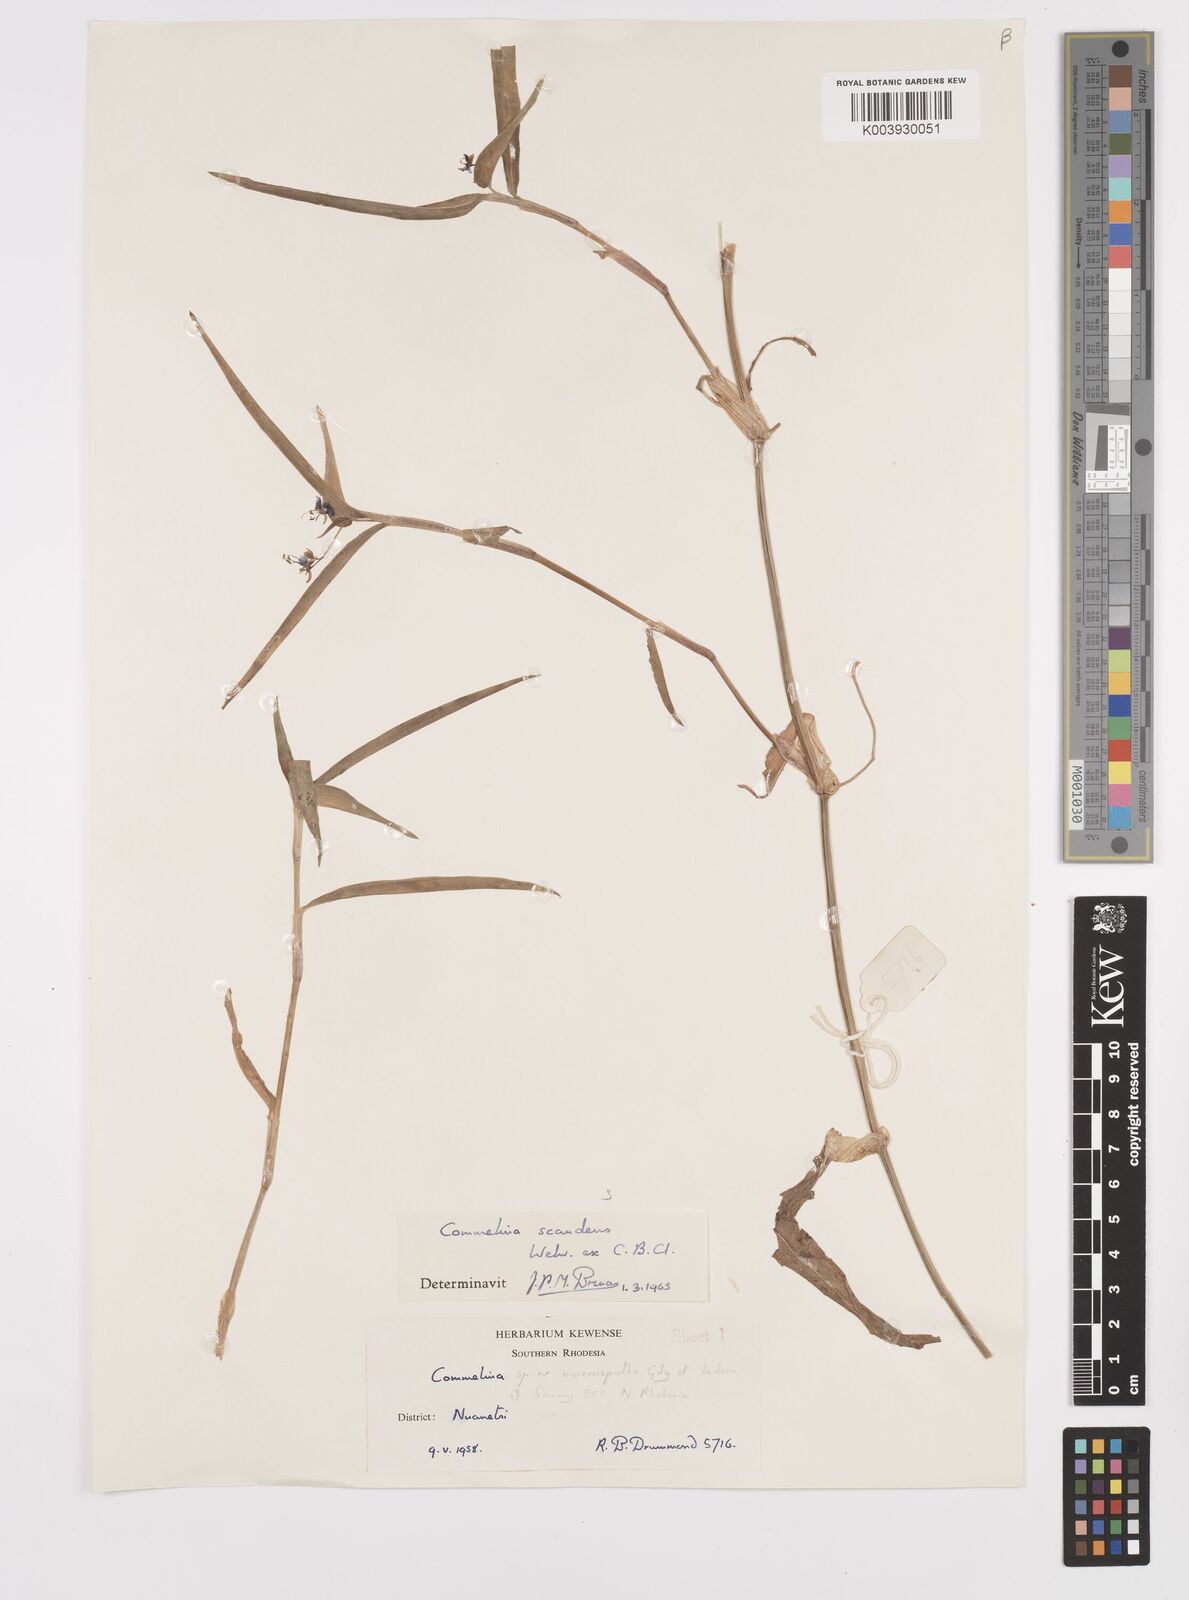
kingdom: Plantae
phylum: Tracheophyta
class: Liliopsida
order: Commelinales
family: Commelinaceae
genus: Commelina
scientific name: Commelina diffusa
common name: Climbing dayflower
